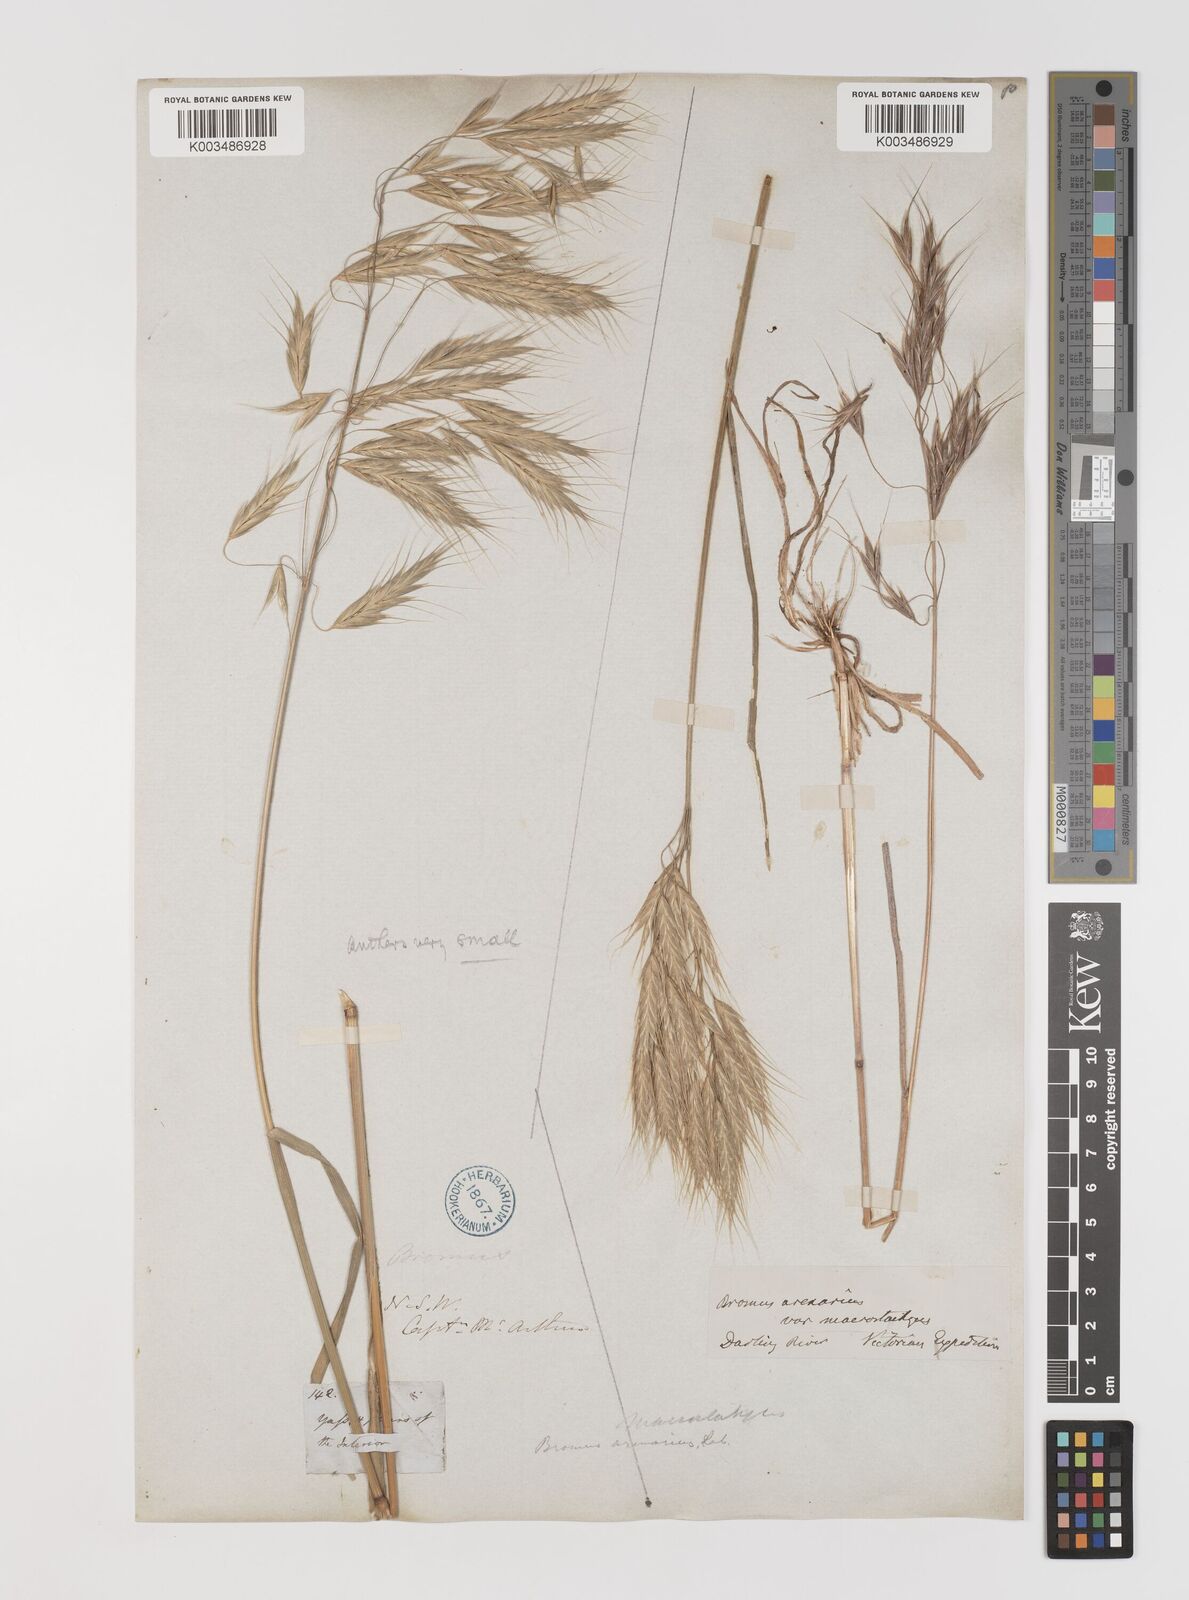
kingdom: Plantae
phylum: Tracheophyta
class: Liliopsida
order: Poales
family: Poaceae
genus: Bromus
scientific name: Bromus arenarius
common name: Australian brome
